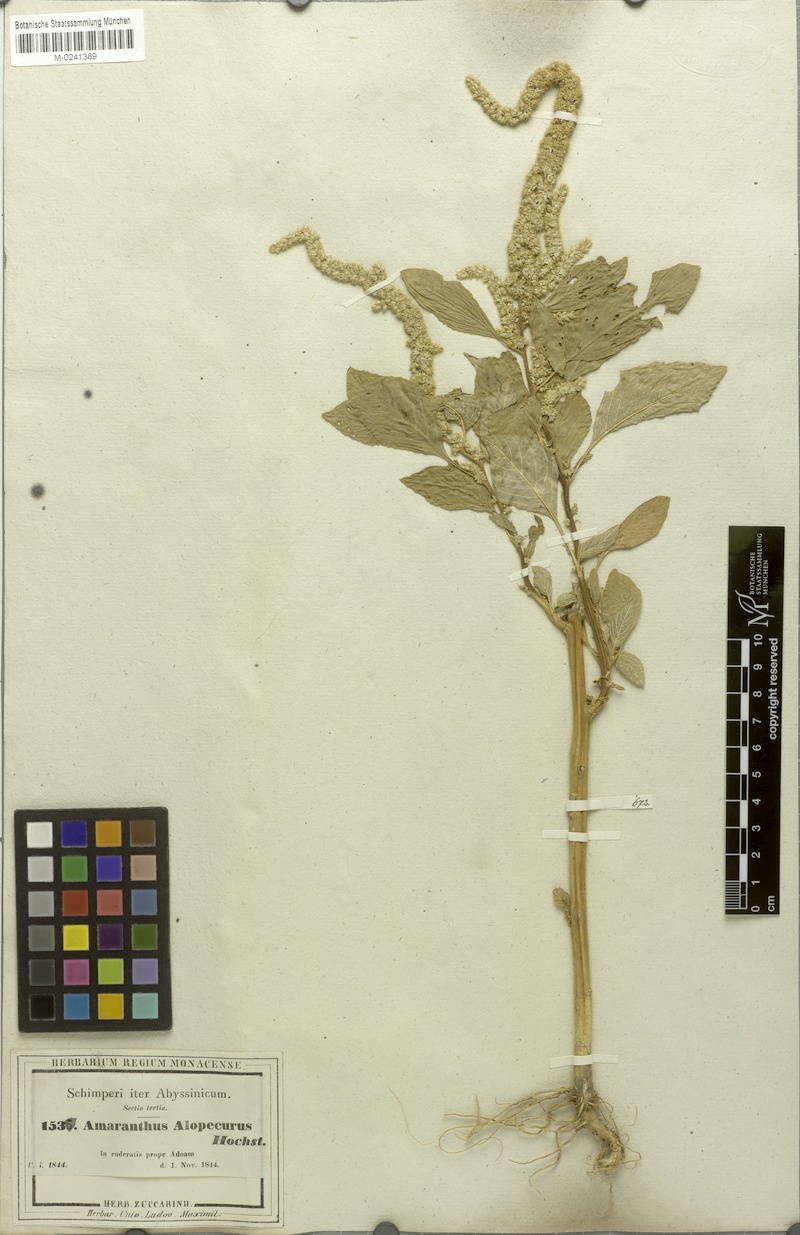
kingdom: Plantae
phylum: Tracheophyta
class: Magnoliopsida
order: Caryophyllales
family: Amaranthaceae
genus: Amaranthus
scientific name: Amaranthus caudatus
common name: Love-lies-bleeding
